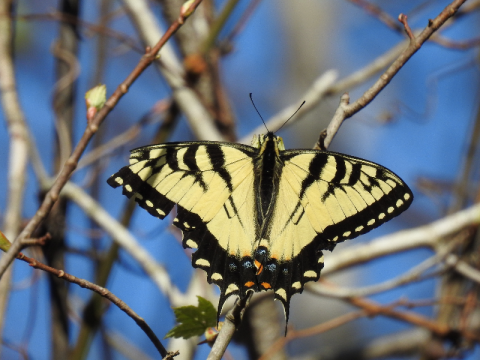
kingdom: Animalia
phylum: Arthropoda
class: Insecta
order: Lepidoptera
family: Papilionidae
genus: Pterourus
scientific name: Pterourus glaucus
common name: Eastern Tiger Swallowtail
